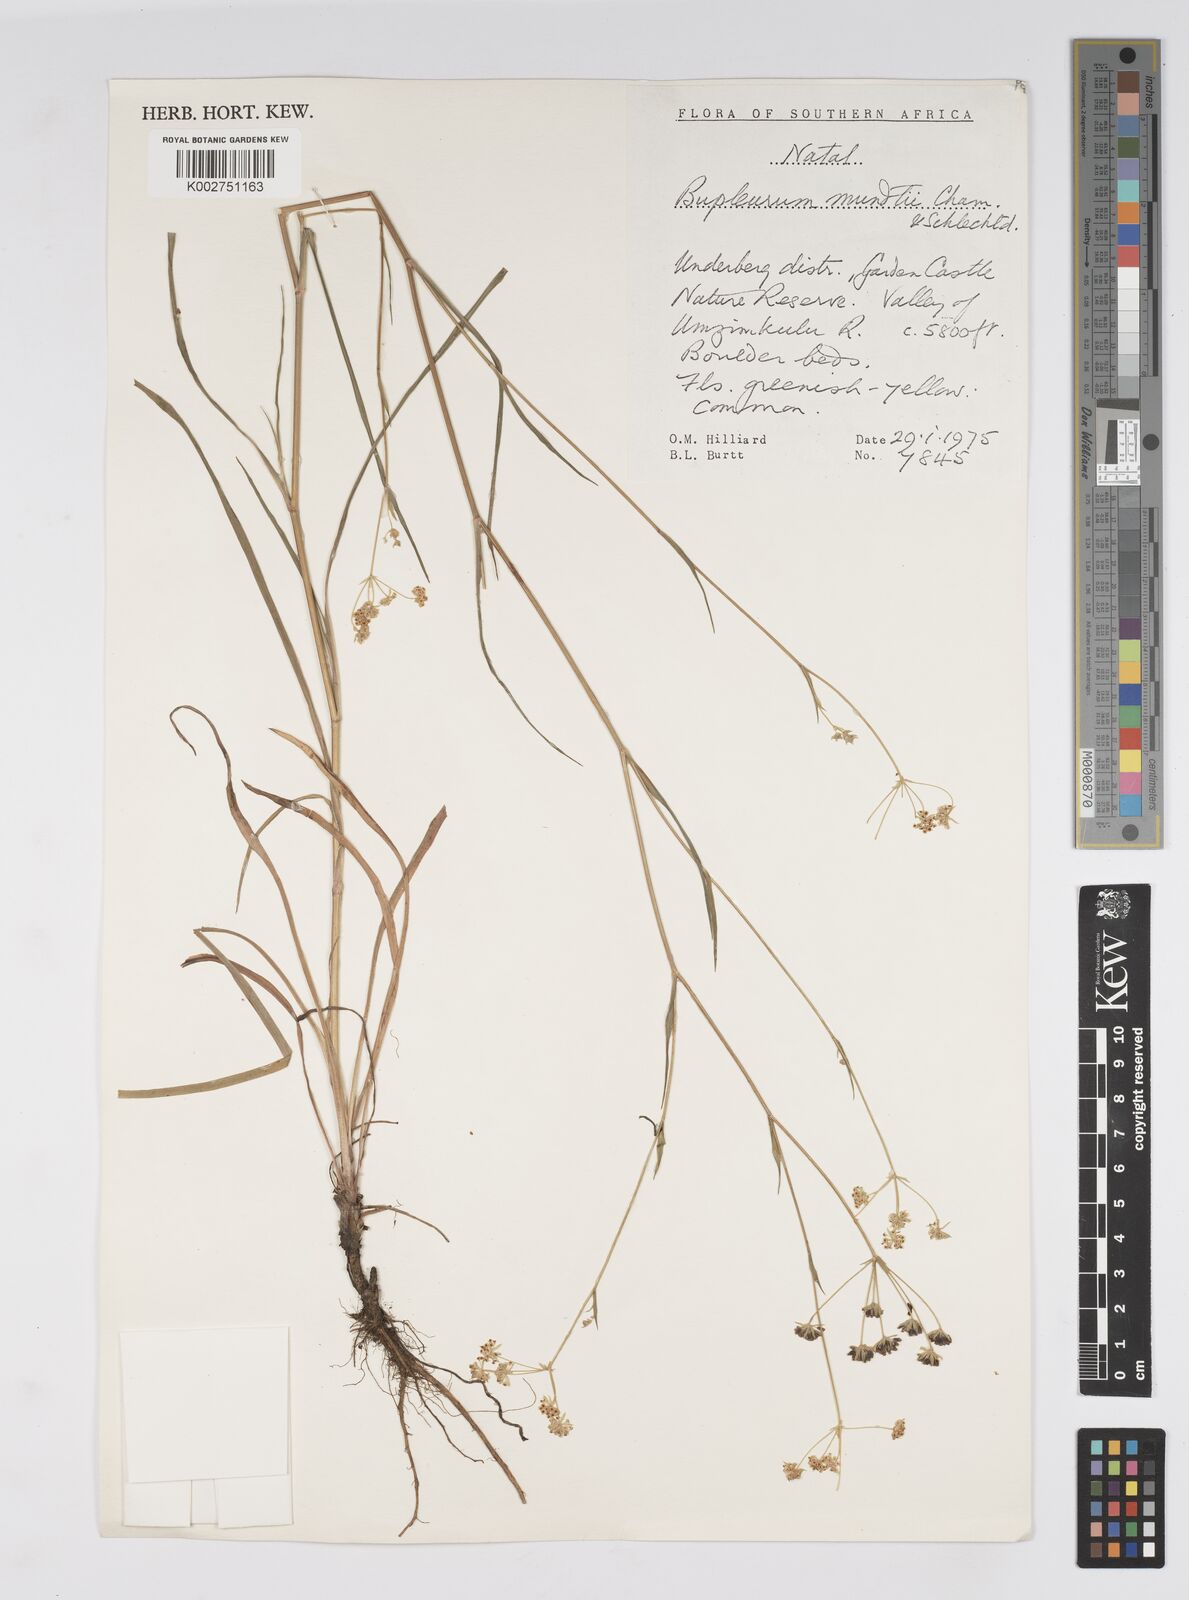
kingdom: Plantae
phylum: Tracheophyta
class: Magnoliopsida
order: Apiales
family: Apiaceae
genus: Bupleurum
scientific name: Bupleurum mundii
